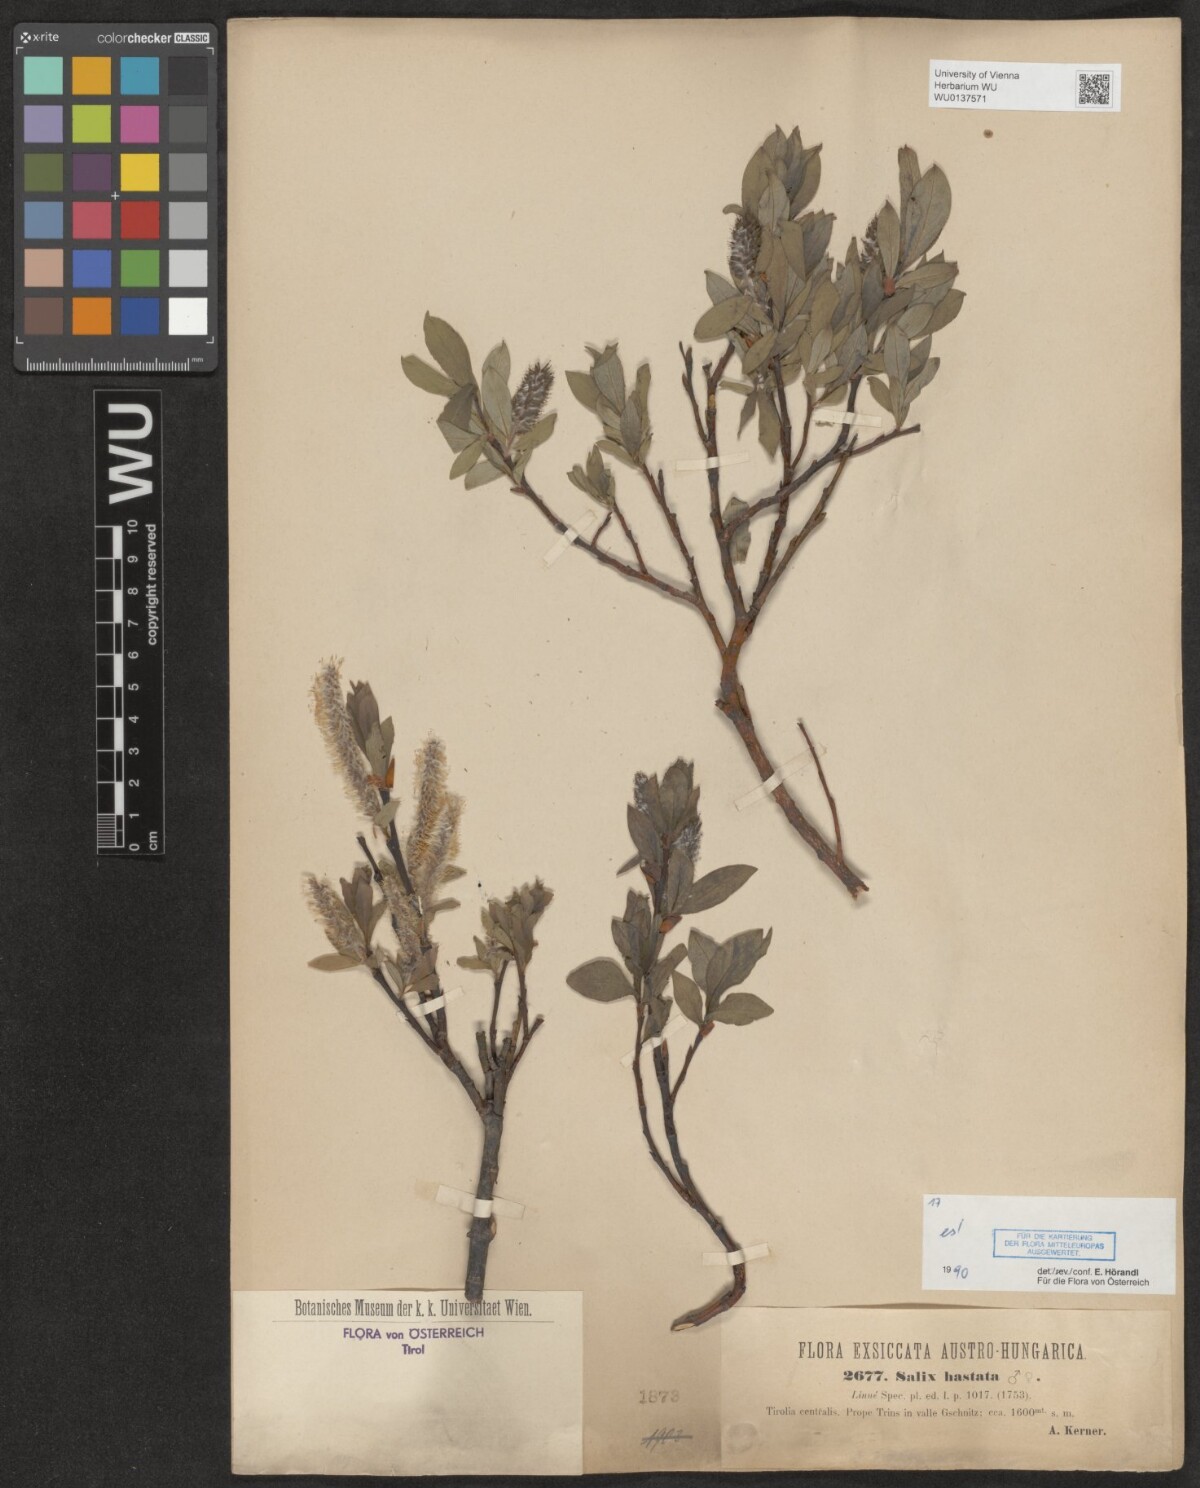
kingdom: Plantae
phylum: Tracheophyta
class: Magnoliopsida
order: Malpighiales
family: Salicaceae
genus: Salix
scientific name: Salix hastata
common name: Halberd willow
